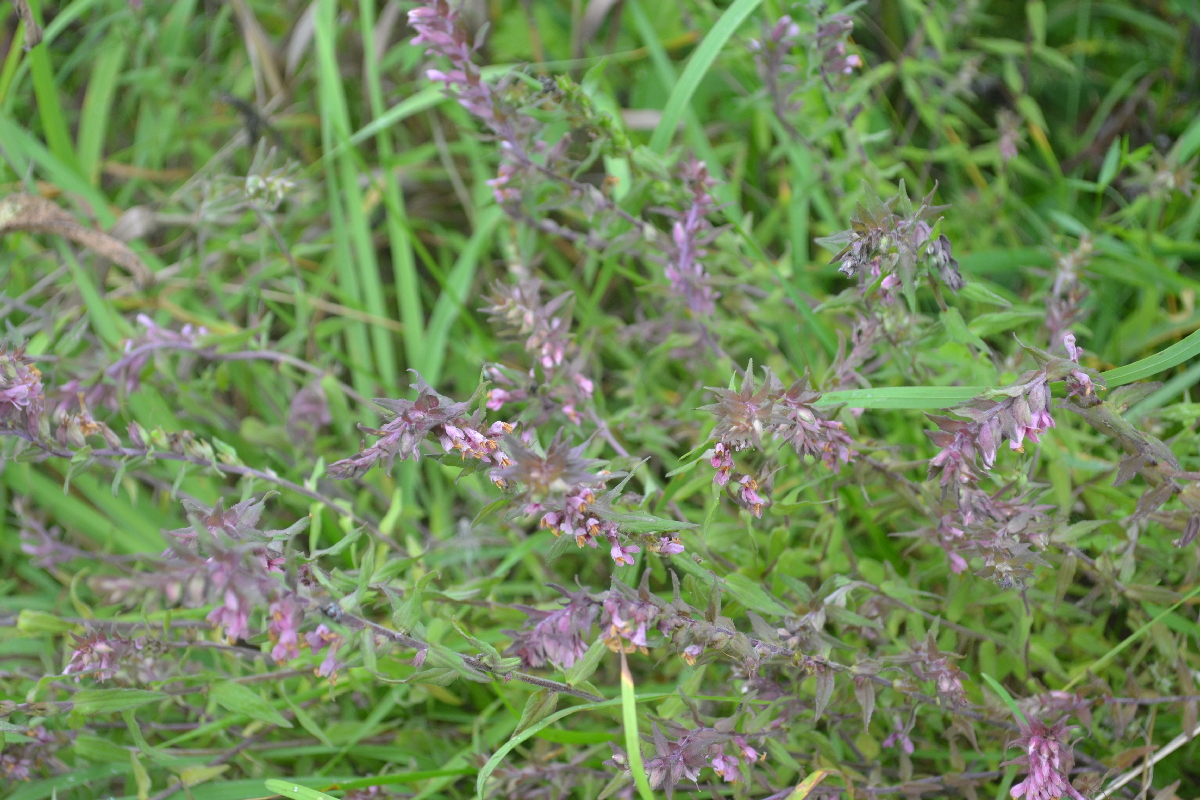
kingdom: Plantae
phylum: Tracheophyta
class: Magnoliopsida
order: Lamiales
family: Orobanchaceae
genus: Odontites
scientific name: Odontites vulgaris
